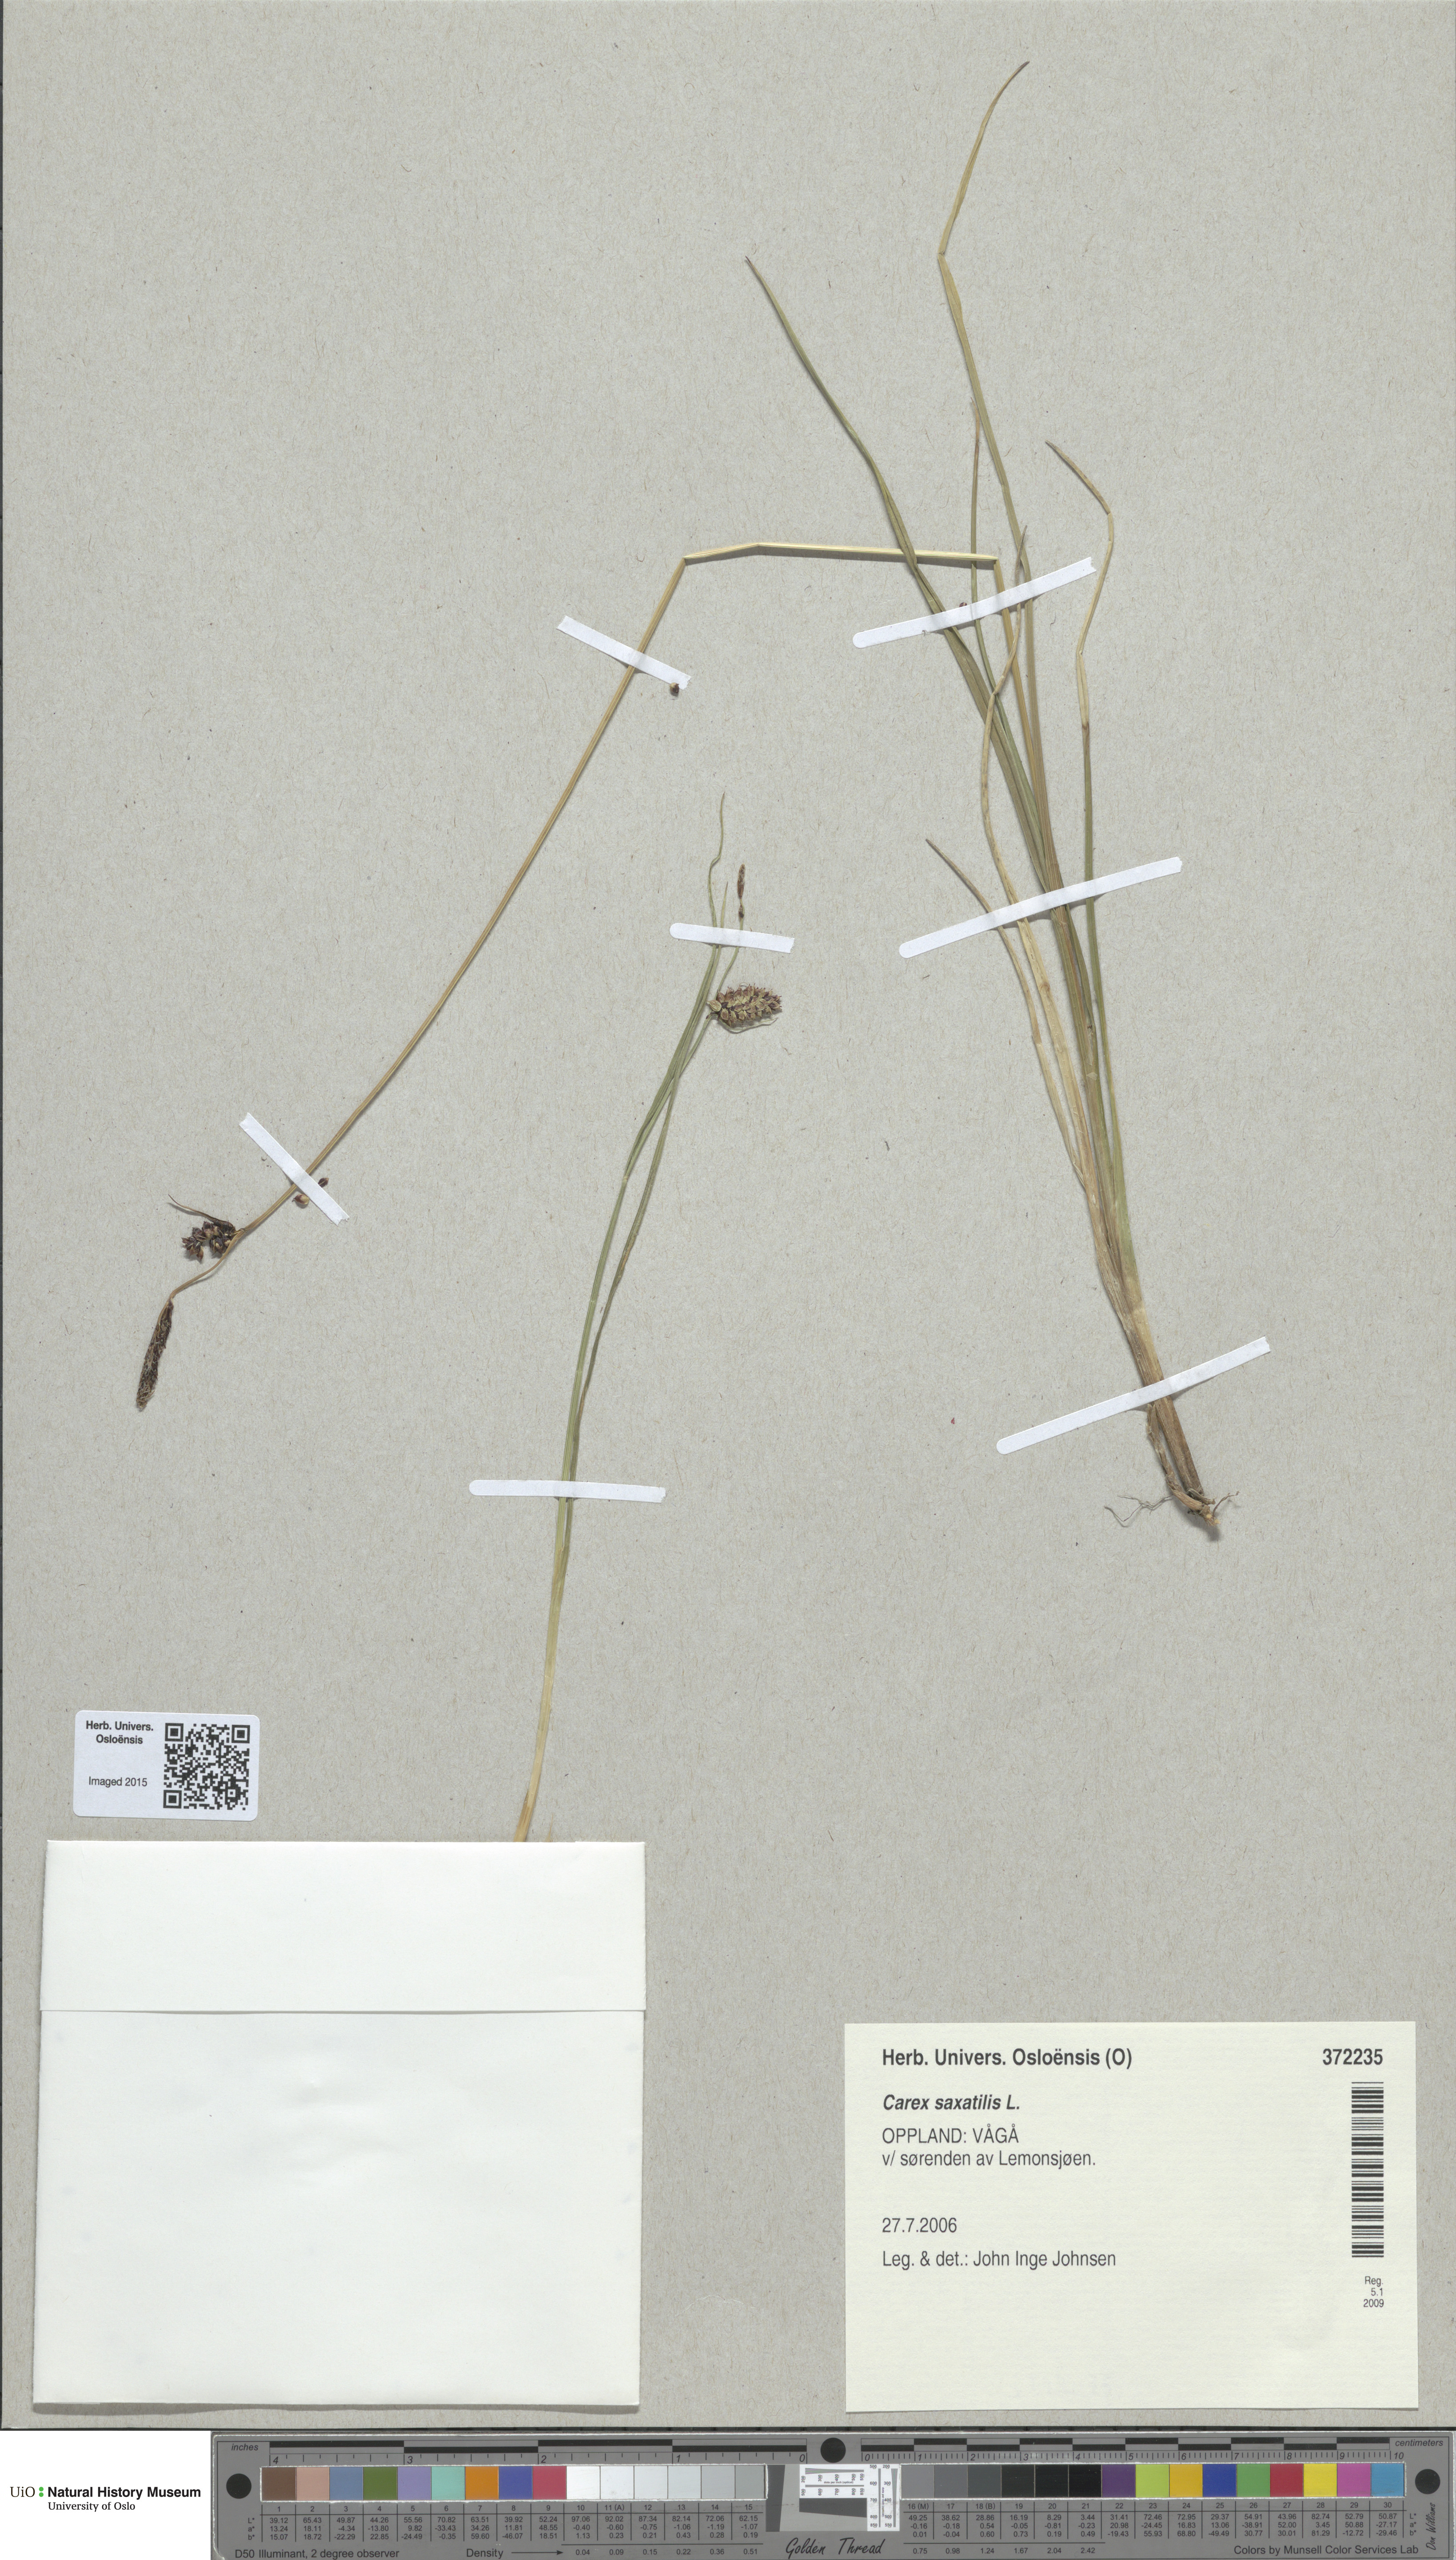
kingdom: Plantae
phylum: Tracheophyta
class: Liliopsida
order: Poales
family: Cyperaceae
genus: Carex
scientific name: Carex saxatilis
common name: Russet sedge
